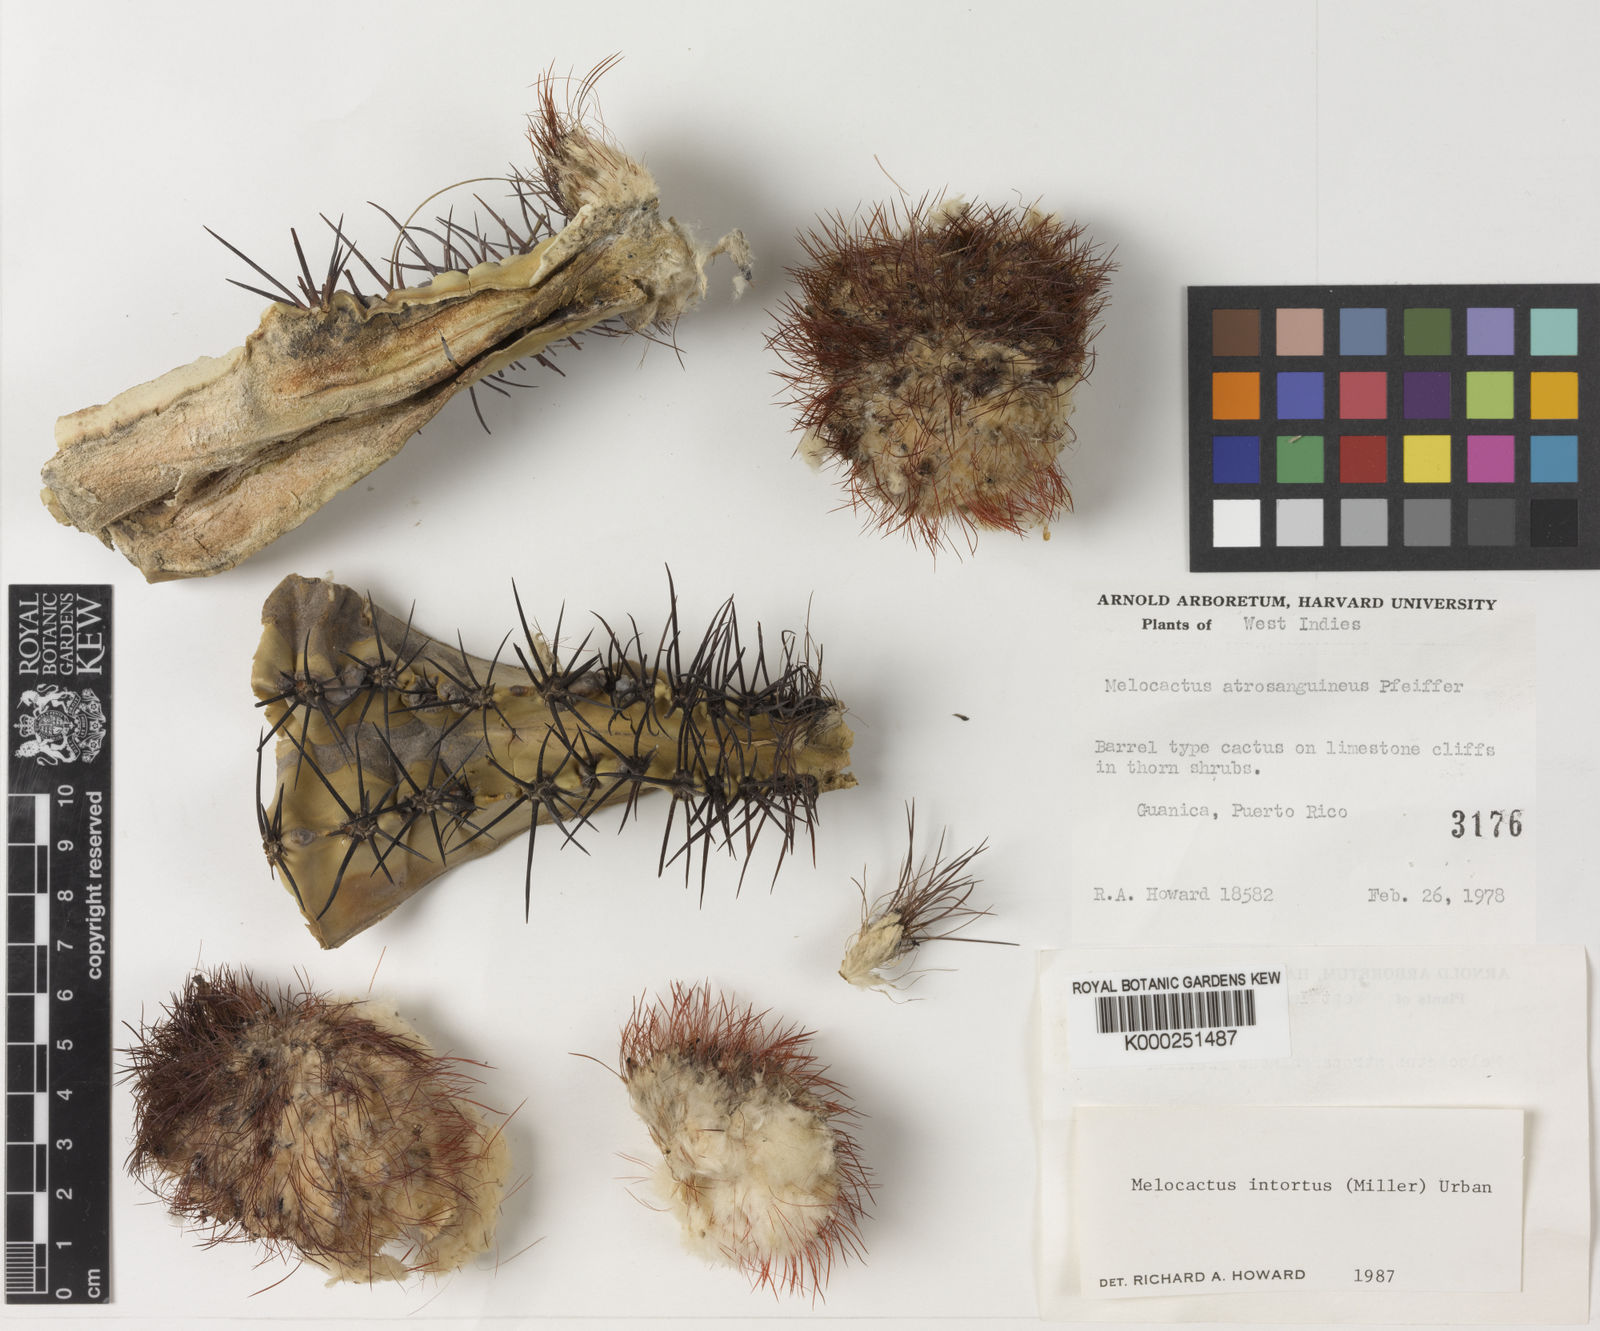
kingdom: Plantae
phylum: Tracheophyta
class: Magnoliopsida
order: Caryophyllales
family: Cactaceae
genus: Melocactus
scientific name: Melocactus
